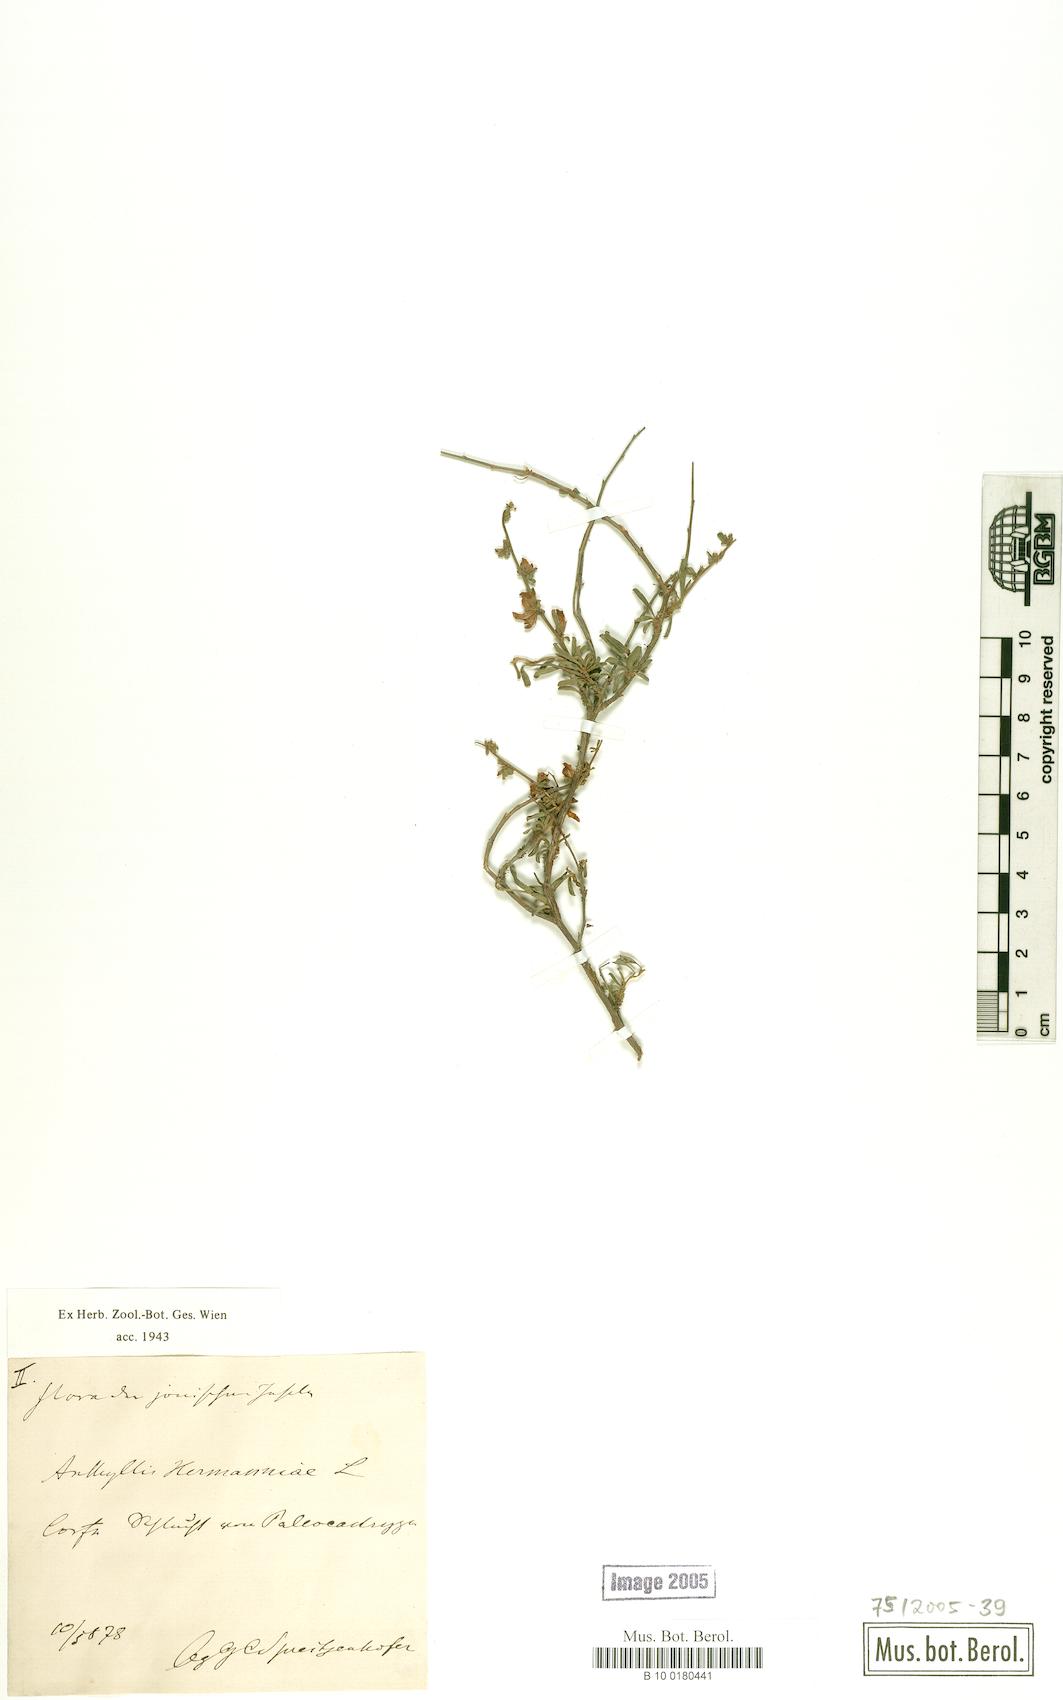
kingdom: Plantae
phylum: Tracheophyta
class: Magnoliopsida
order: Fabales
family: Fabaceae
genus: Anthyllis
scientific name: Anthyllis hermanniae
